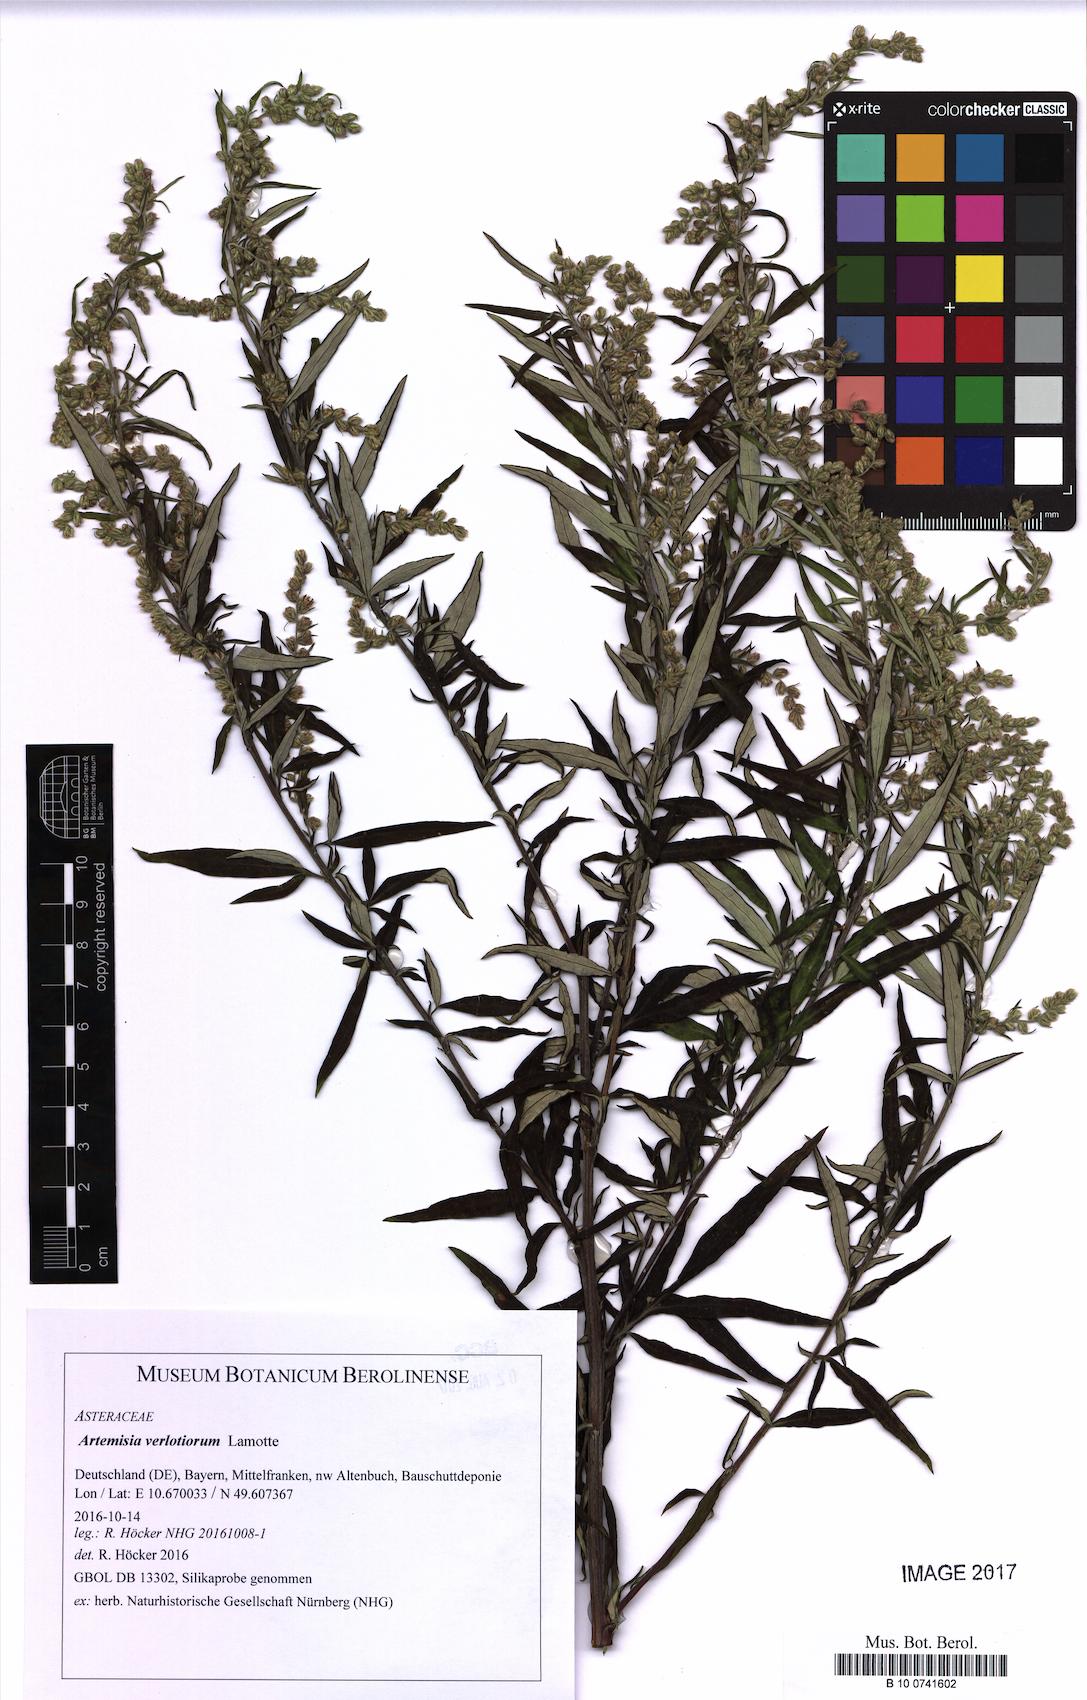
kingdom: Plantae
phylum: Tracheophyta
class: Magnoliopsida
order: Asterales
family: Asteraceae
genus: Artemisia
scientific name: Artemisia verlotiorum
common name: Chinese mugwort
